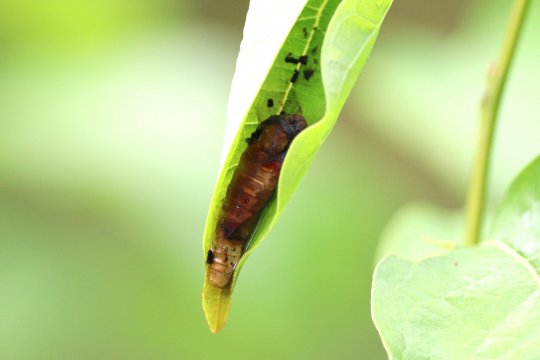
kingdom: Animalia
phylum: Arthropoda
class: Insecta
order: Lepidoptera
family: Papilionidae
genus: Pterourus
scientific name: Pterourus troilus
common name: Spicebush Swallowtail
